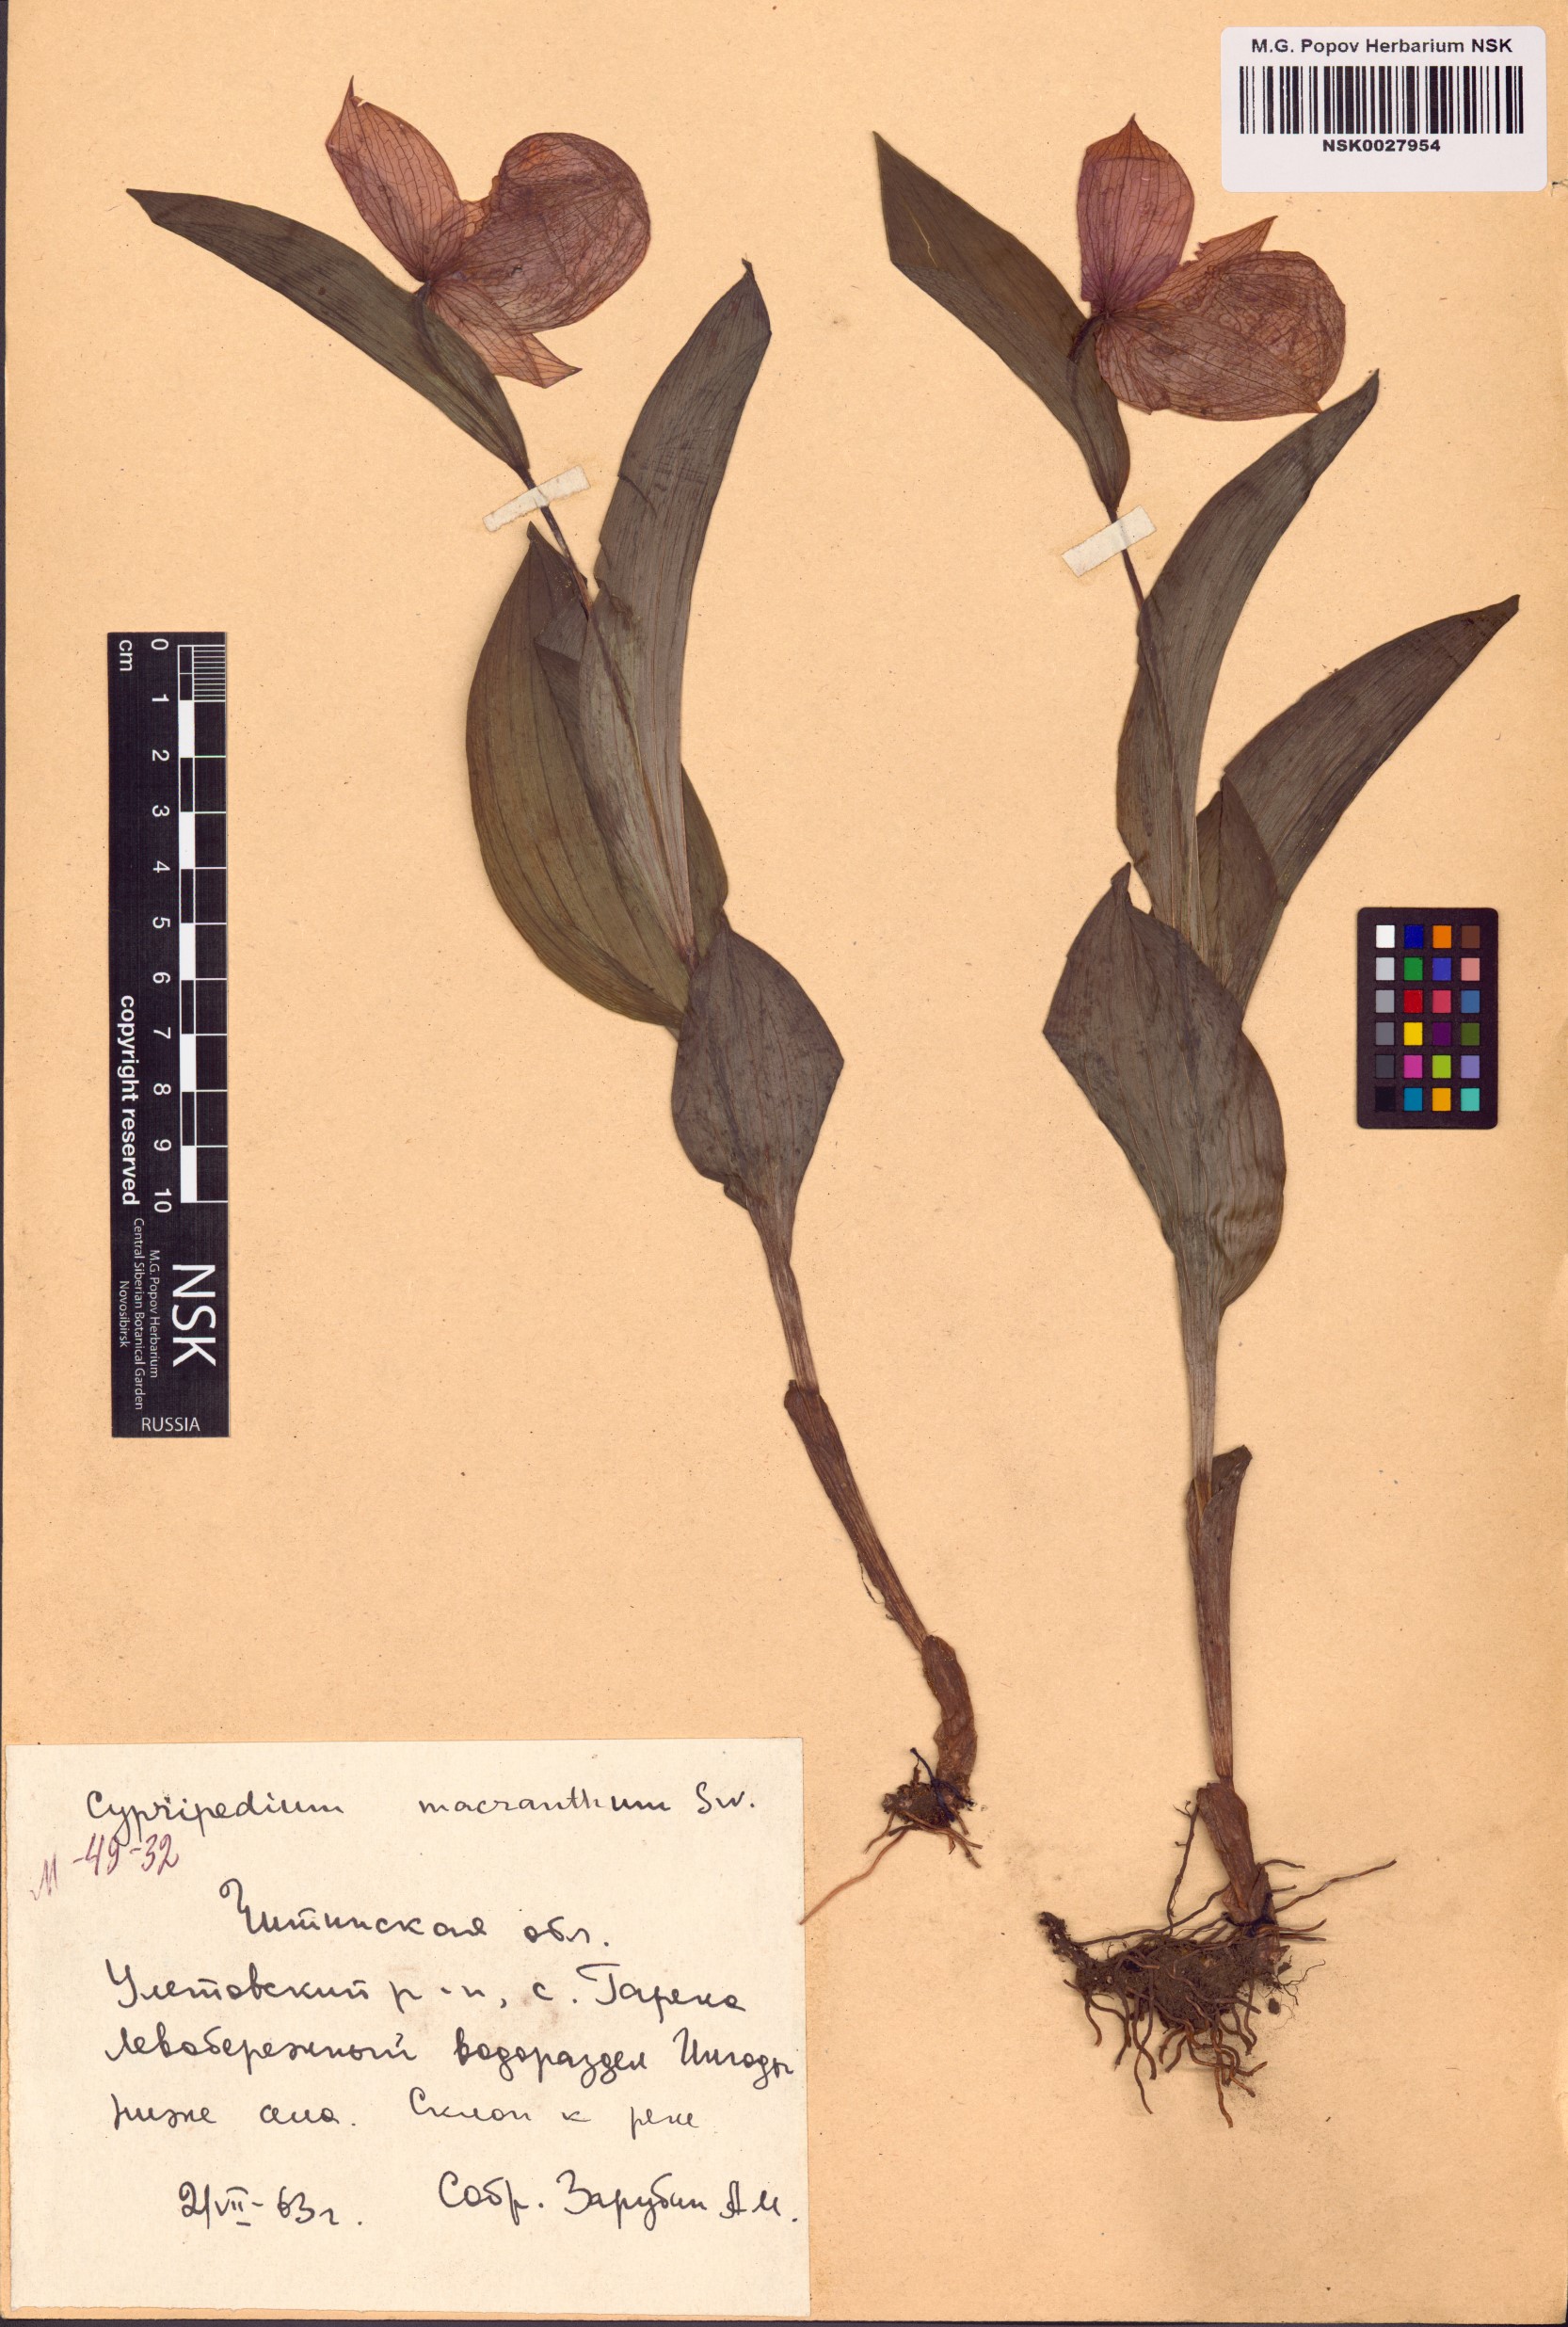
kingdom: Plantae
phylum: Tracheophyta
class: Liliopsida
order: Asparagales
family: Orchidaceae
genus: Cypripedium
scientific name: Cypripedium macranthos
